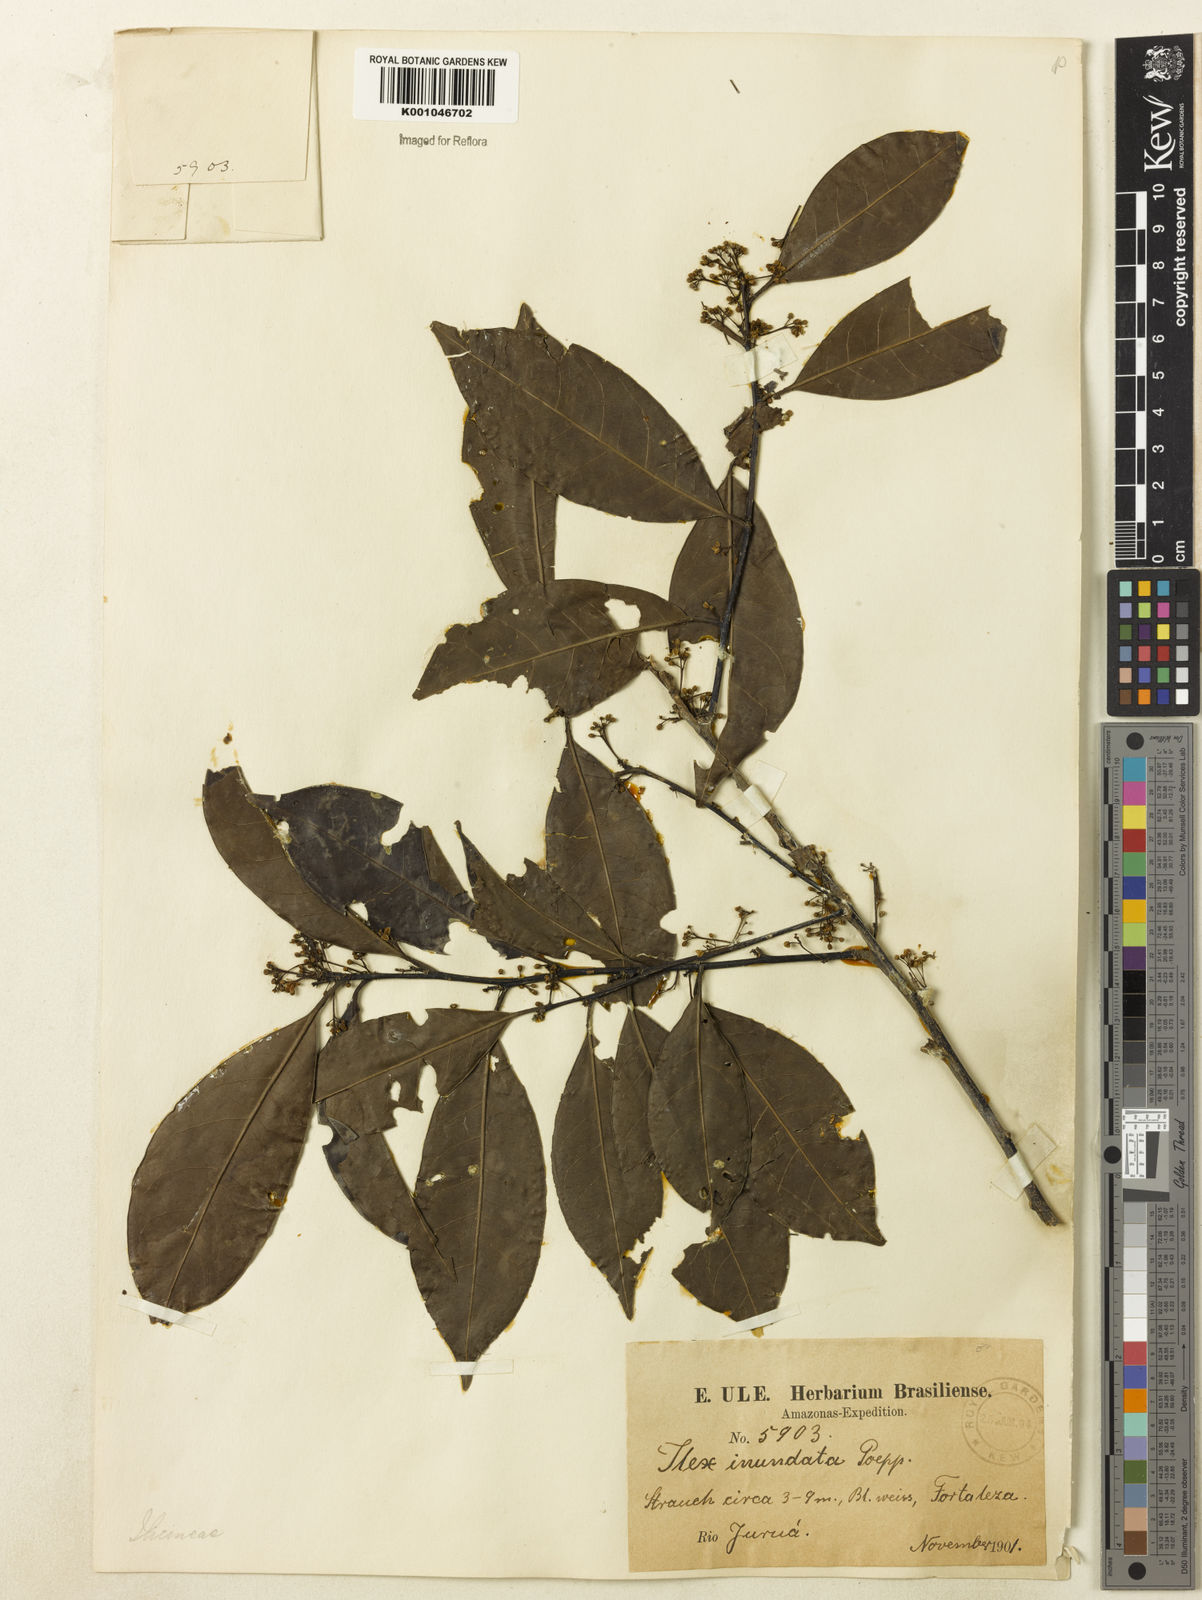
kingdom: Plantae
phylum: Tracheophyta
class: Magnoliopsida
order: Aquifoliales
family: Aquifoliaceae
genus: Ilex
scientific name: Ilex inundata
